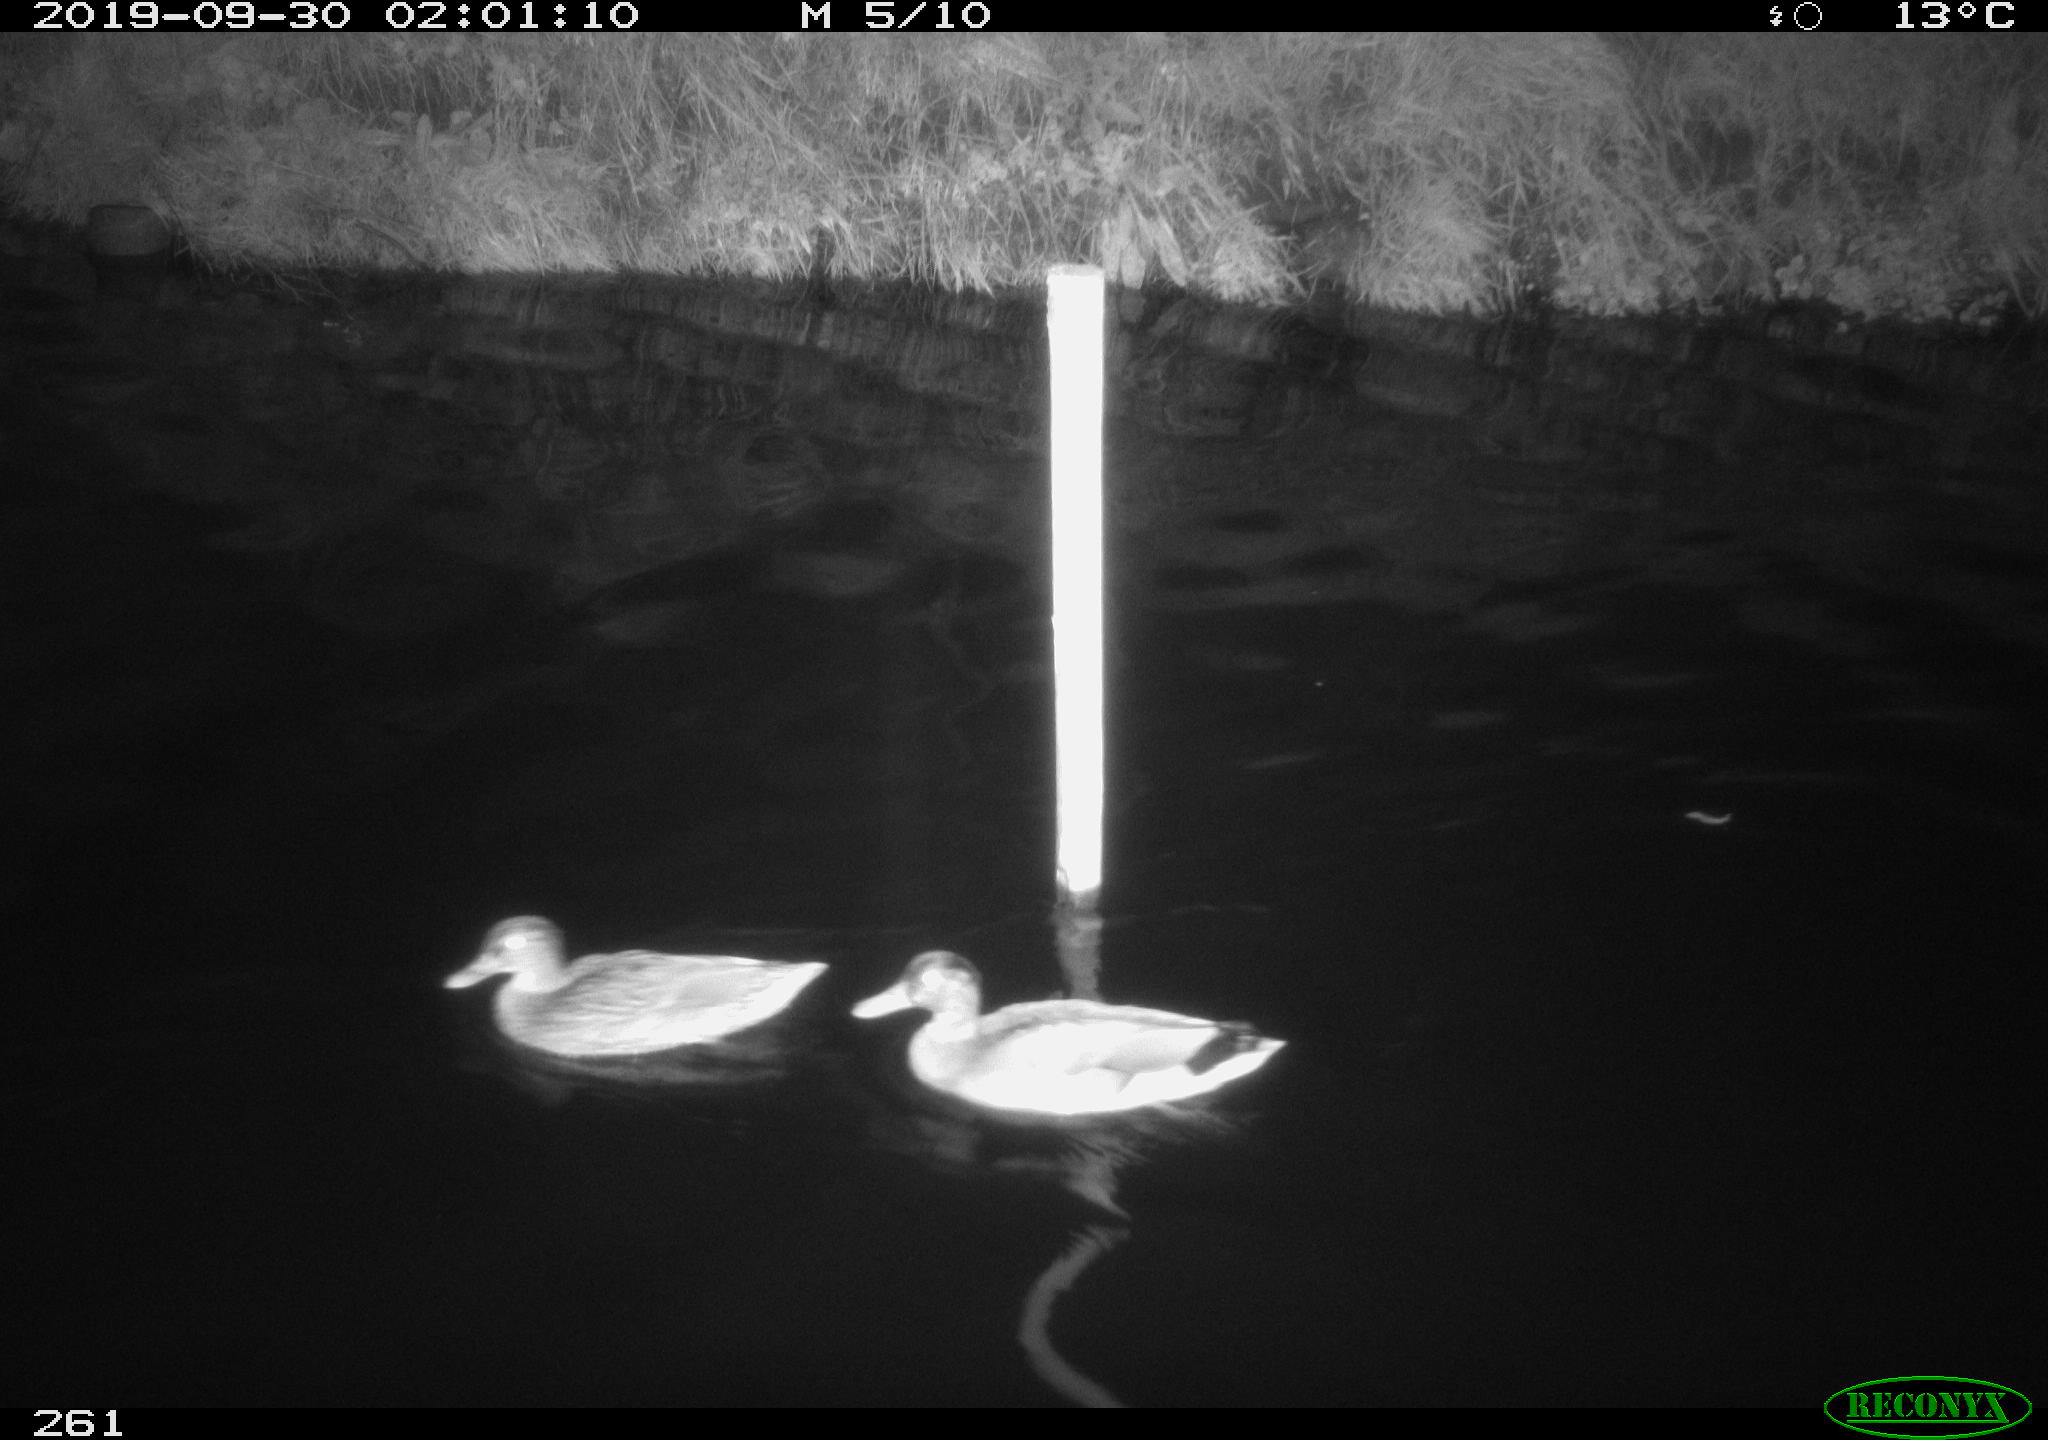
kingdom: Animalia
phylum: Chordata
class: Aves
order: Anseriformes
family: Anatidae
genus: Anas
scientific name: Anas platyrhynchos
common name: Mallard
